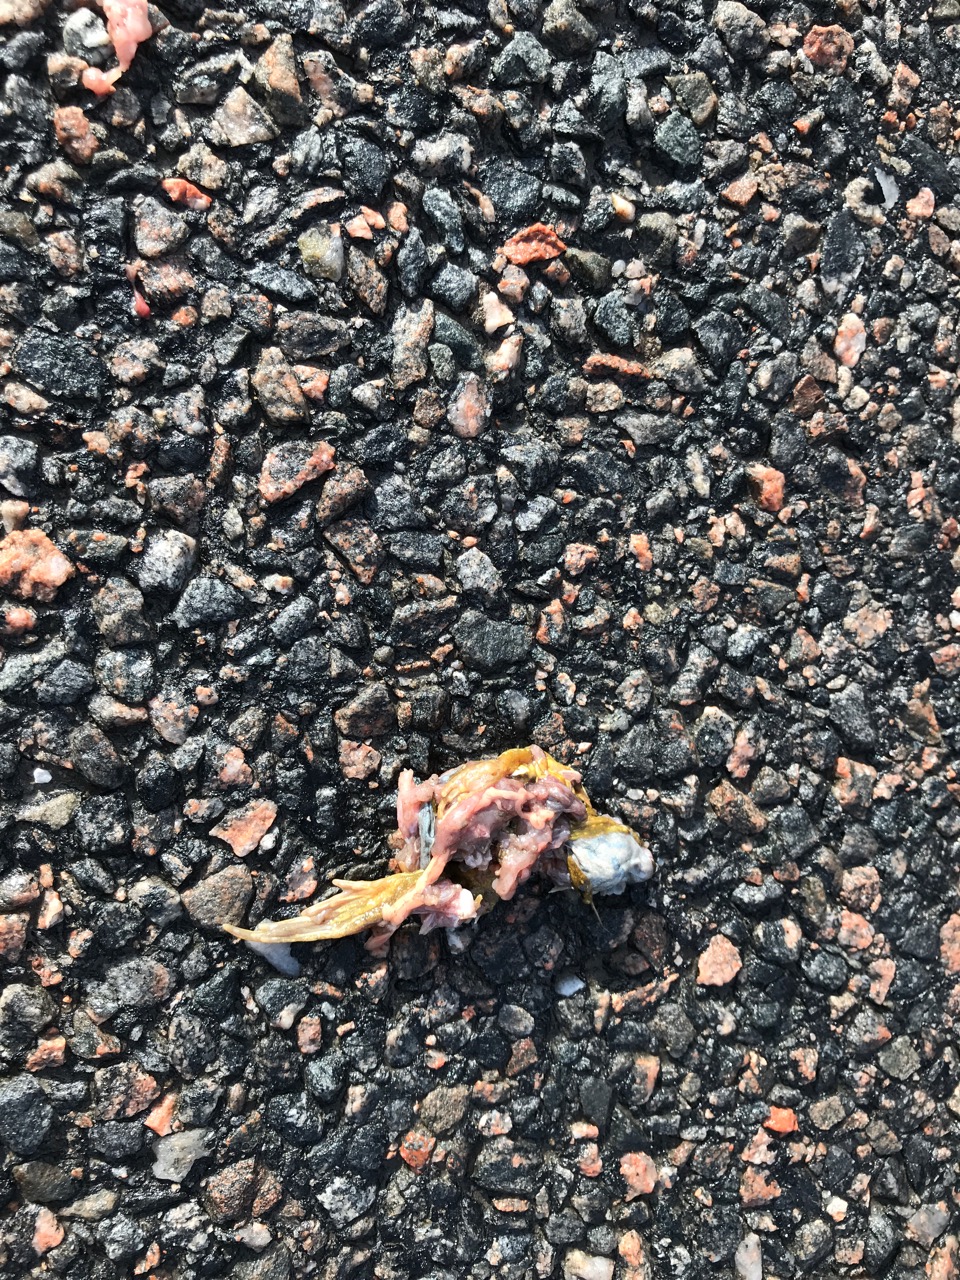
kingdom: Animalia
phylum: Chordata
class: Amphibia
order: Anura
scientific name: Anura
